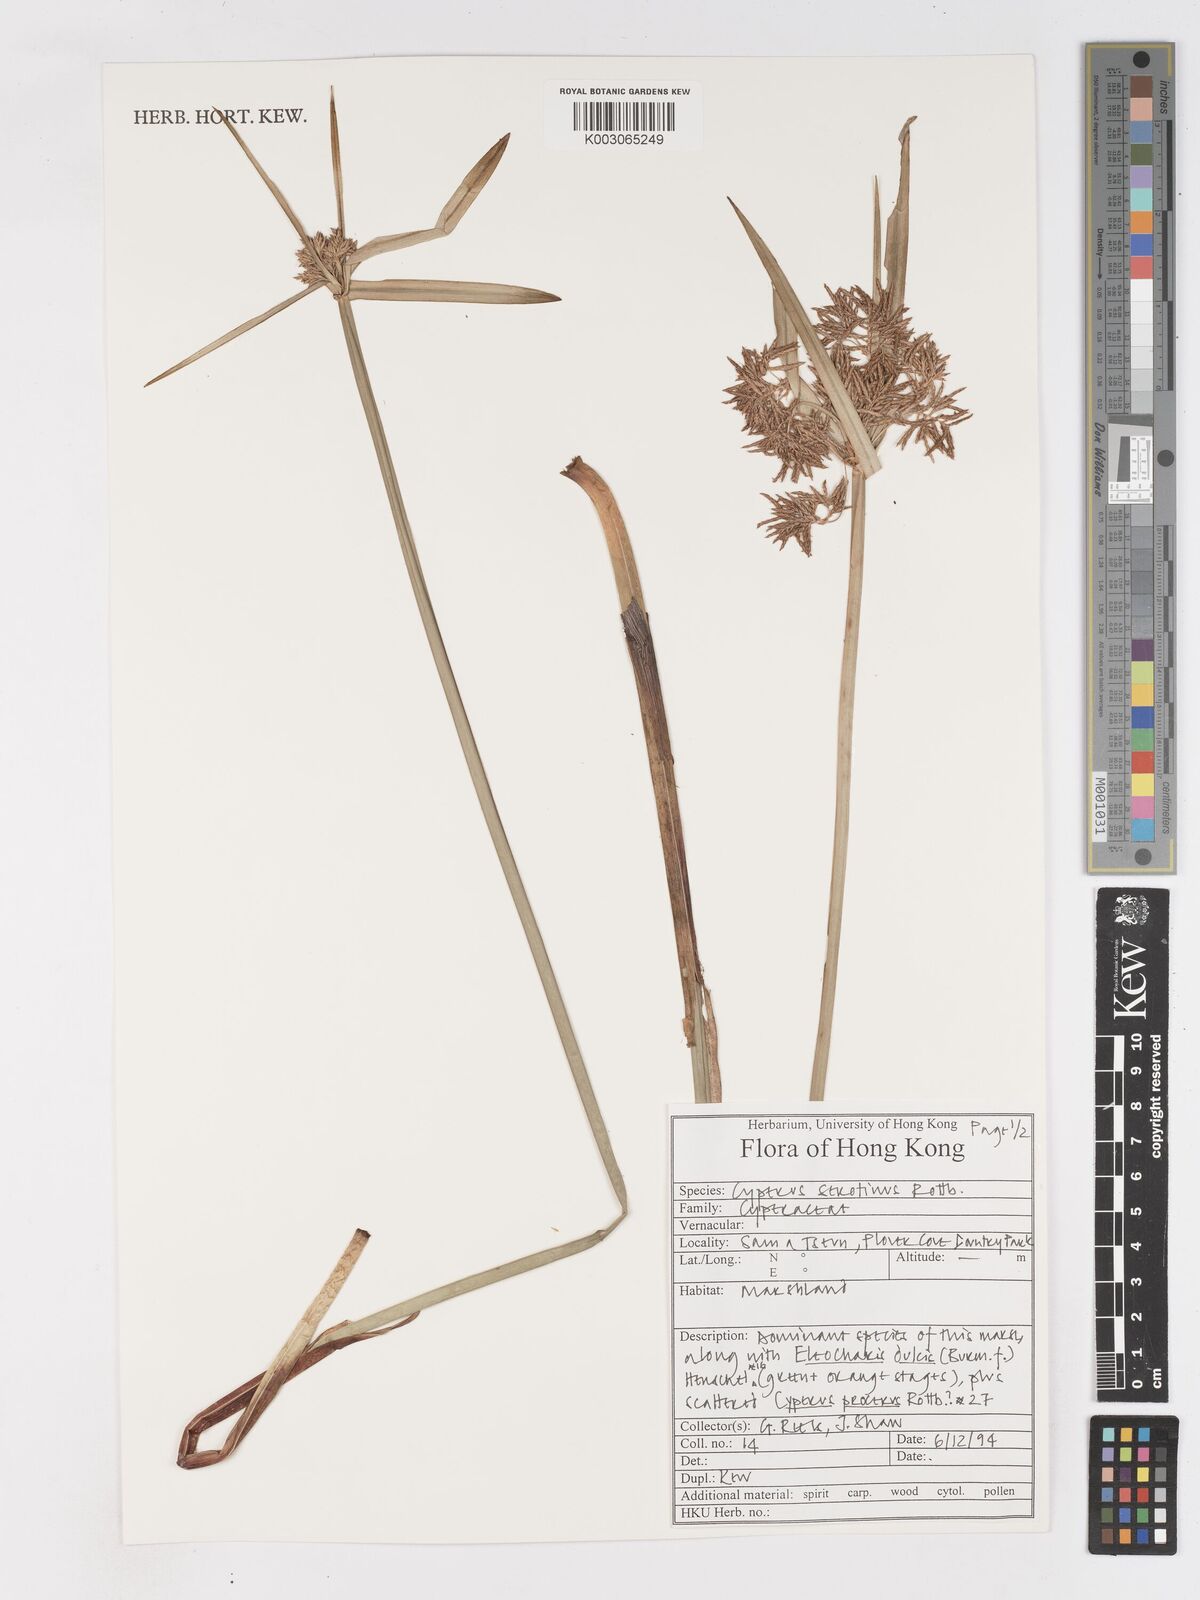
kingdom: Plantae
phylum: Tracheophyta
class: Liliopsida
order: Poales
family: Cyperaceae
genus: Cyperus
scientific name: Cyperus serotinus
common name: Tidalmarsh flatsedge
